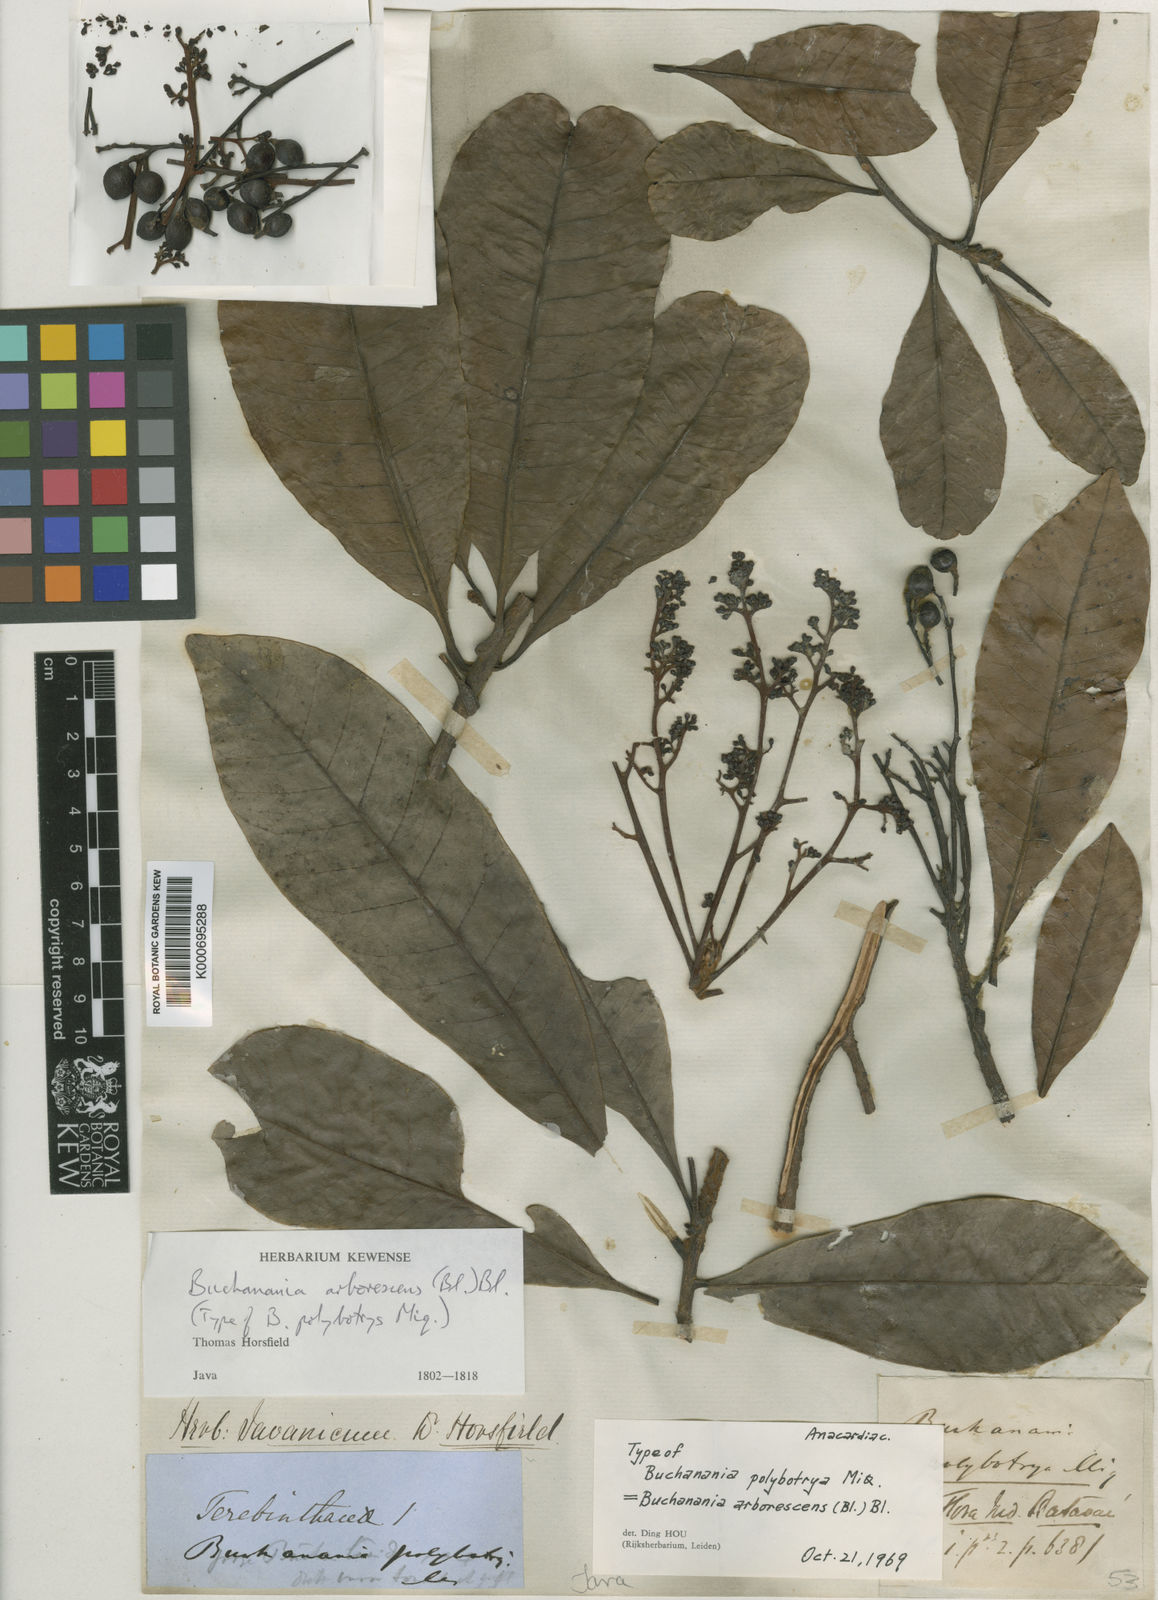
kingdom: Plantae
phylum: Tracheophyta
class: Magnoliopsida
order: Sapindales
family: Anacardiaceae
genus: Buchanania
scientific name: Buchanania arborescens
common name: Sparrow’s mango
